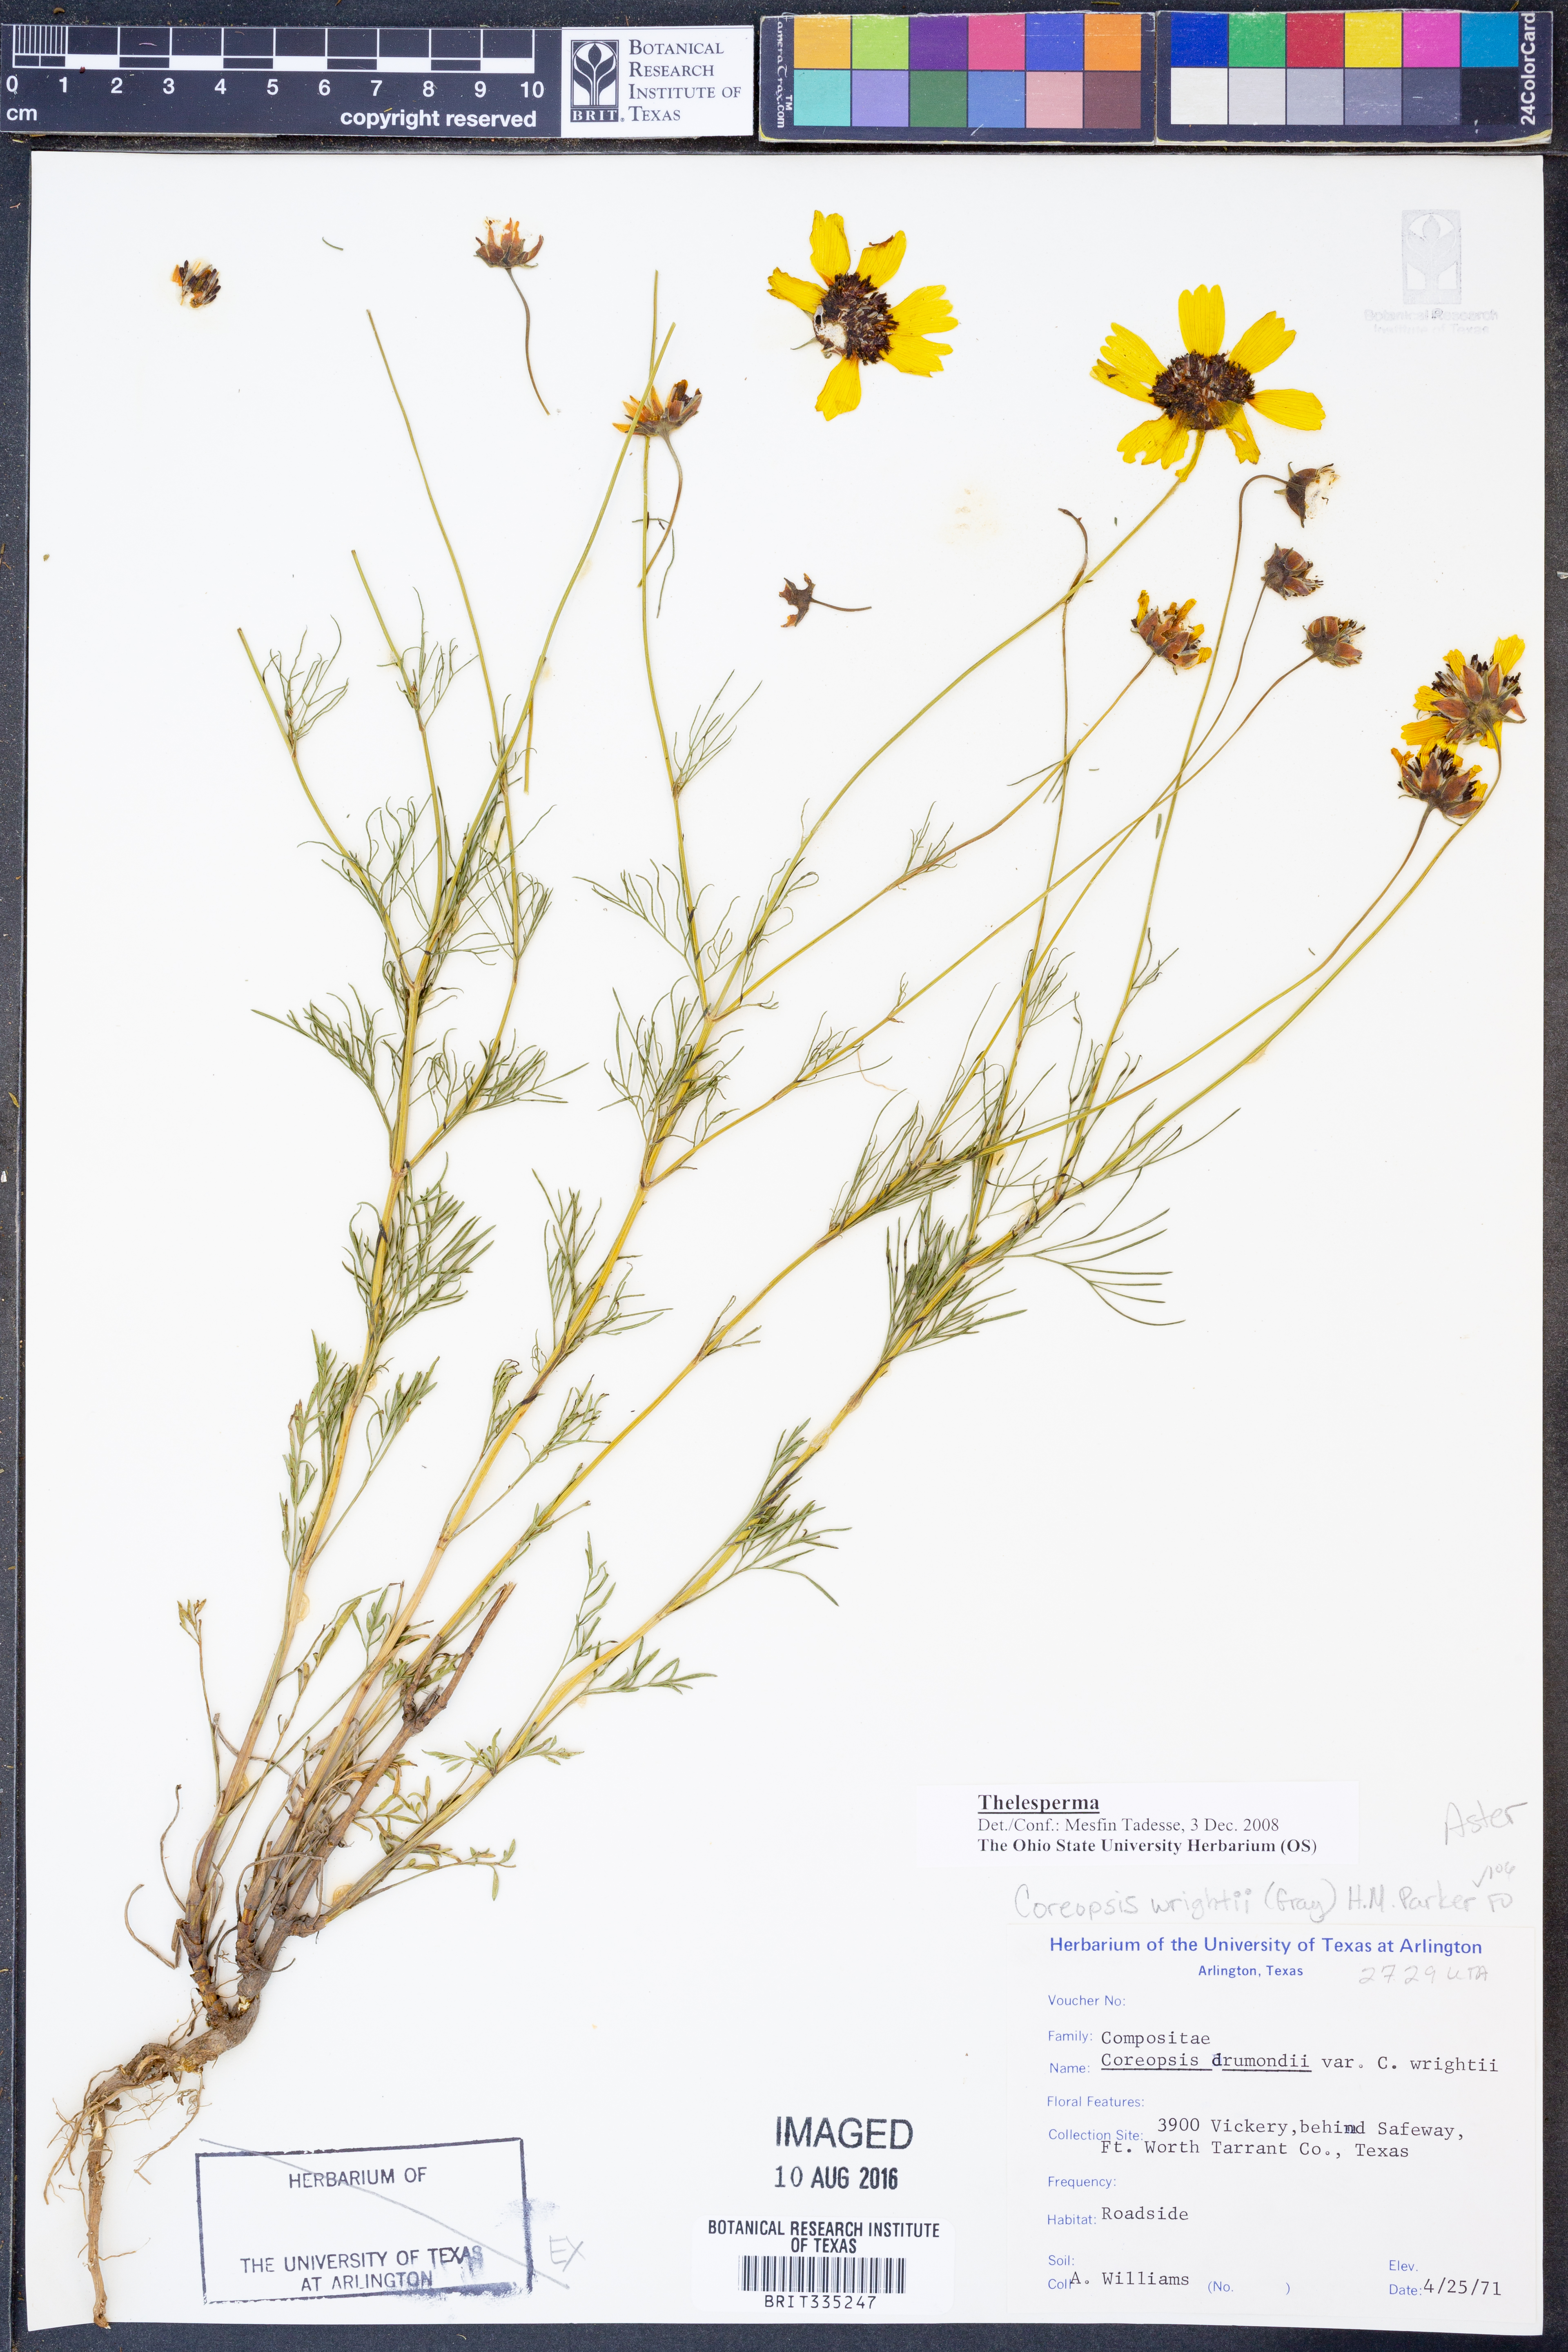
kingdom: Plantae
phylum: Tracheophyta
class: Magnoliopsida
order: Asterales
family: Asteraceae
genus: Thelesperma
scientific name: Thelesperma
